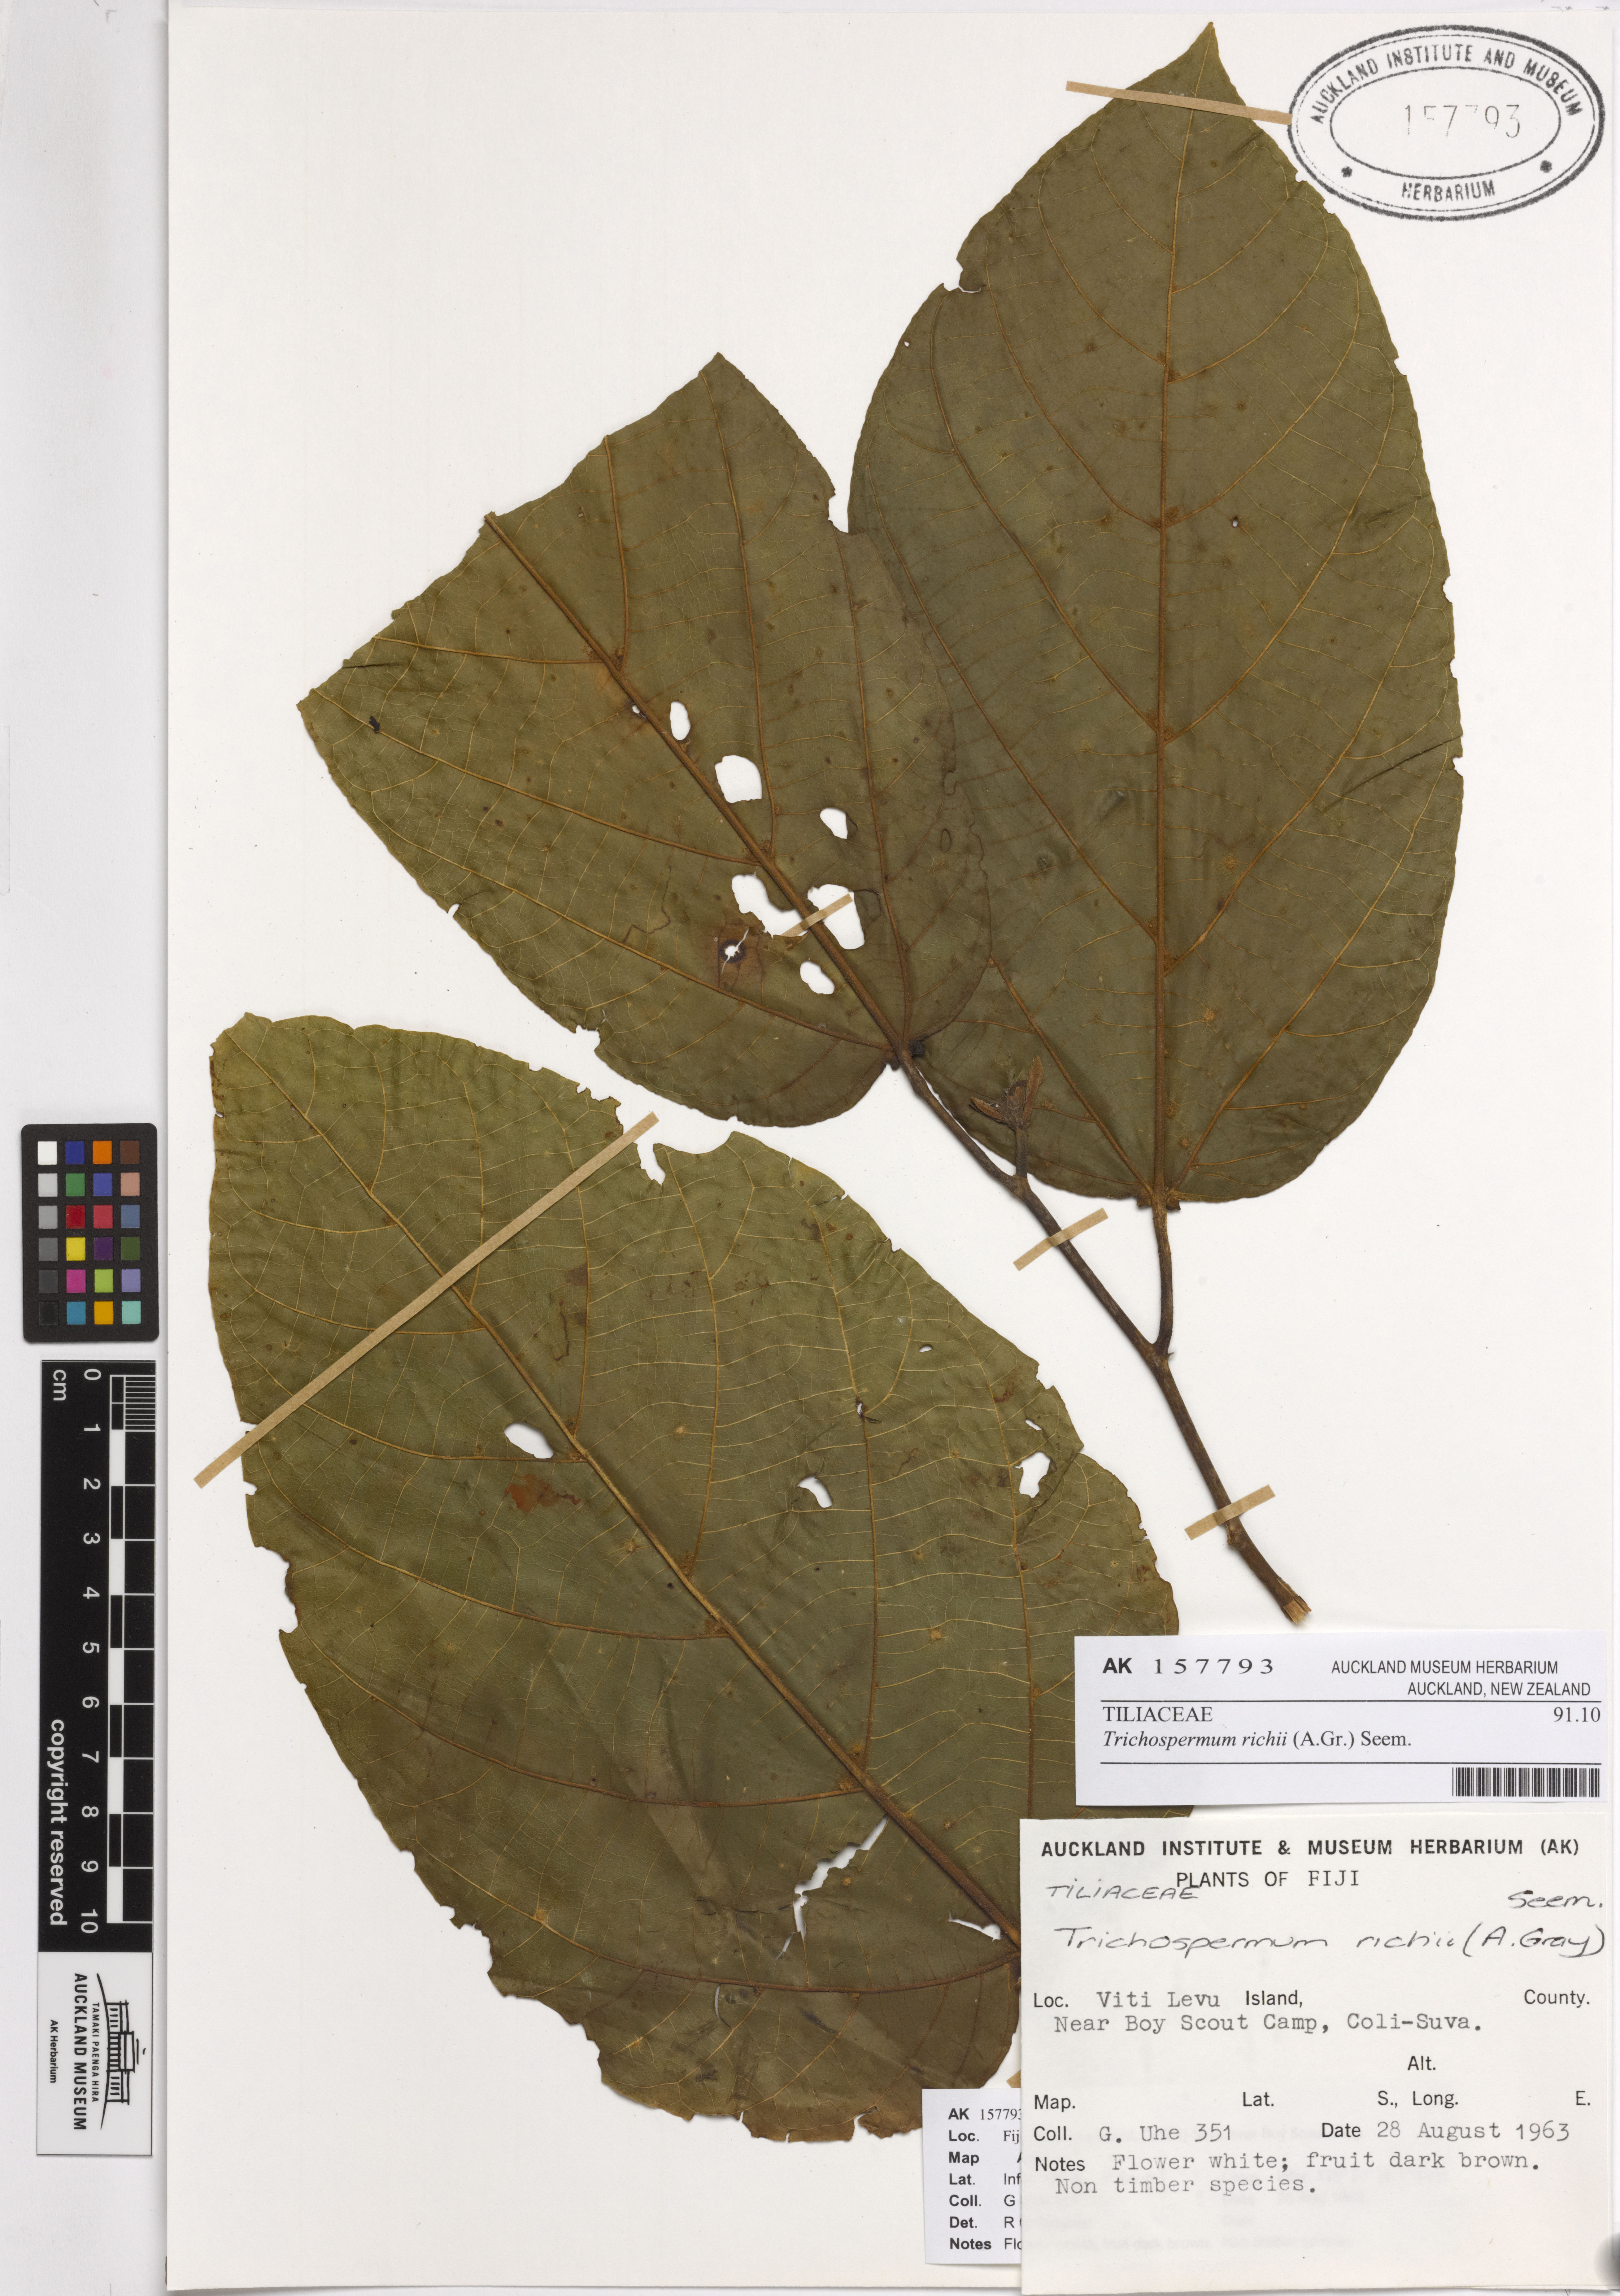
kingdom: Plantae
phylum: Tracheophyta
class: Magnoliopsida
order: Malvales
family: Malvaceae
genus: Trichospermum
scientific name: Trichospermum richii
